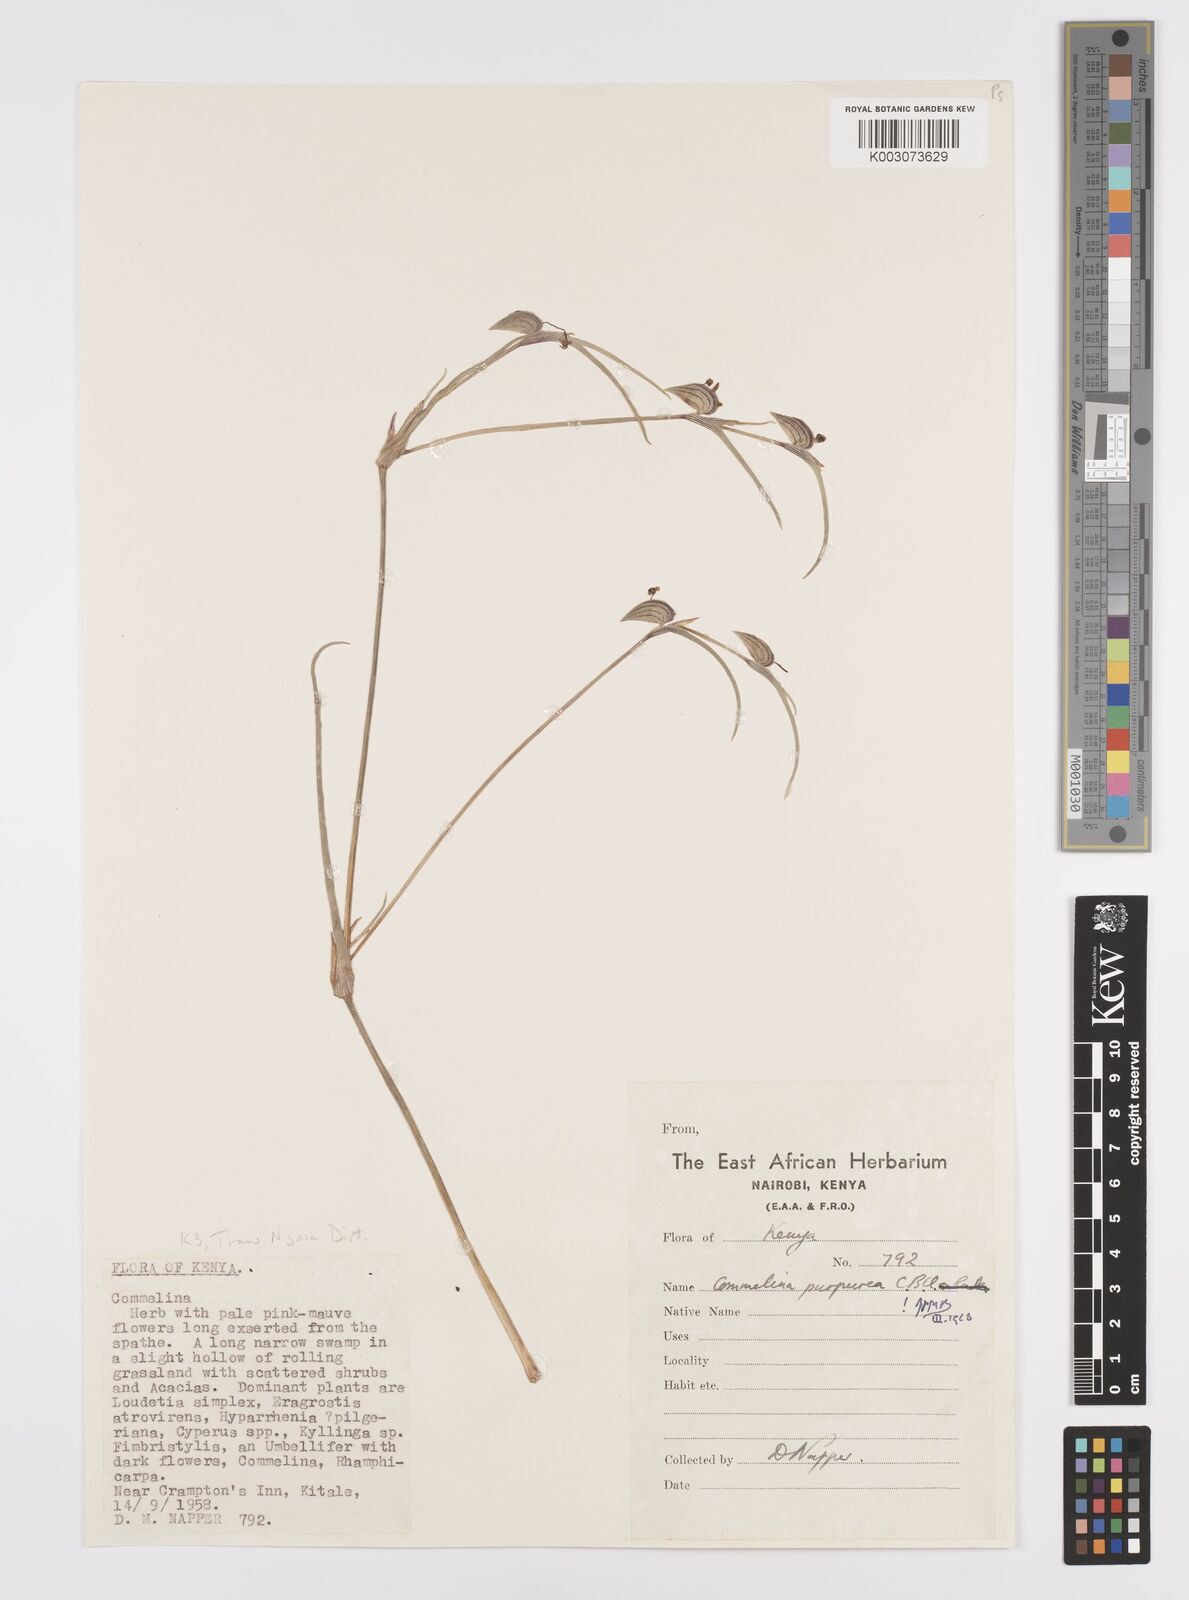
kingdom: Plantae
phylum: Tracheophyta
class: Liliopsida
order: Commelinales
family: Commelinaceae
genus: Commelina
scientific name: Commelina purpurea
